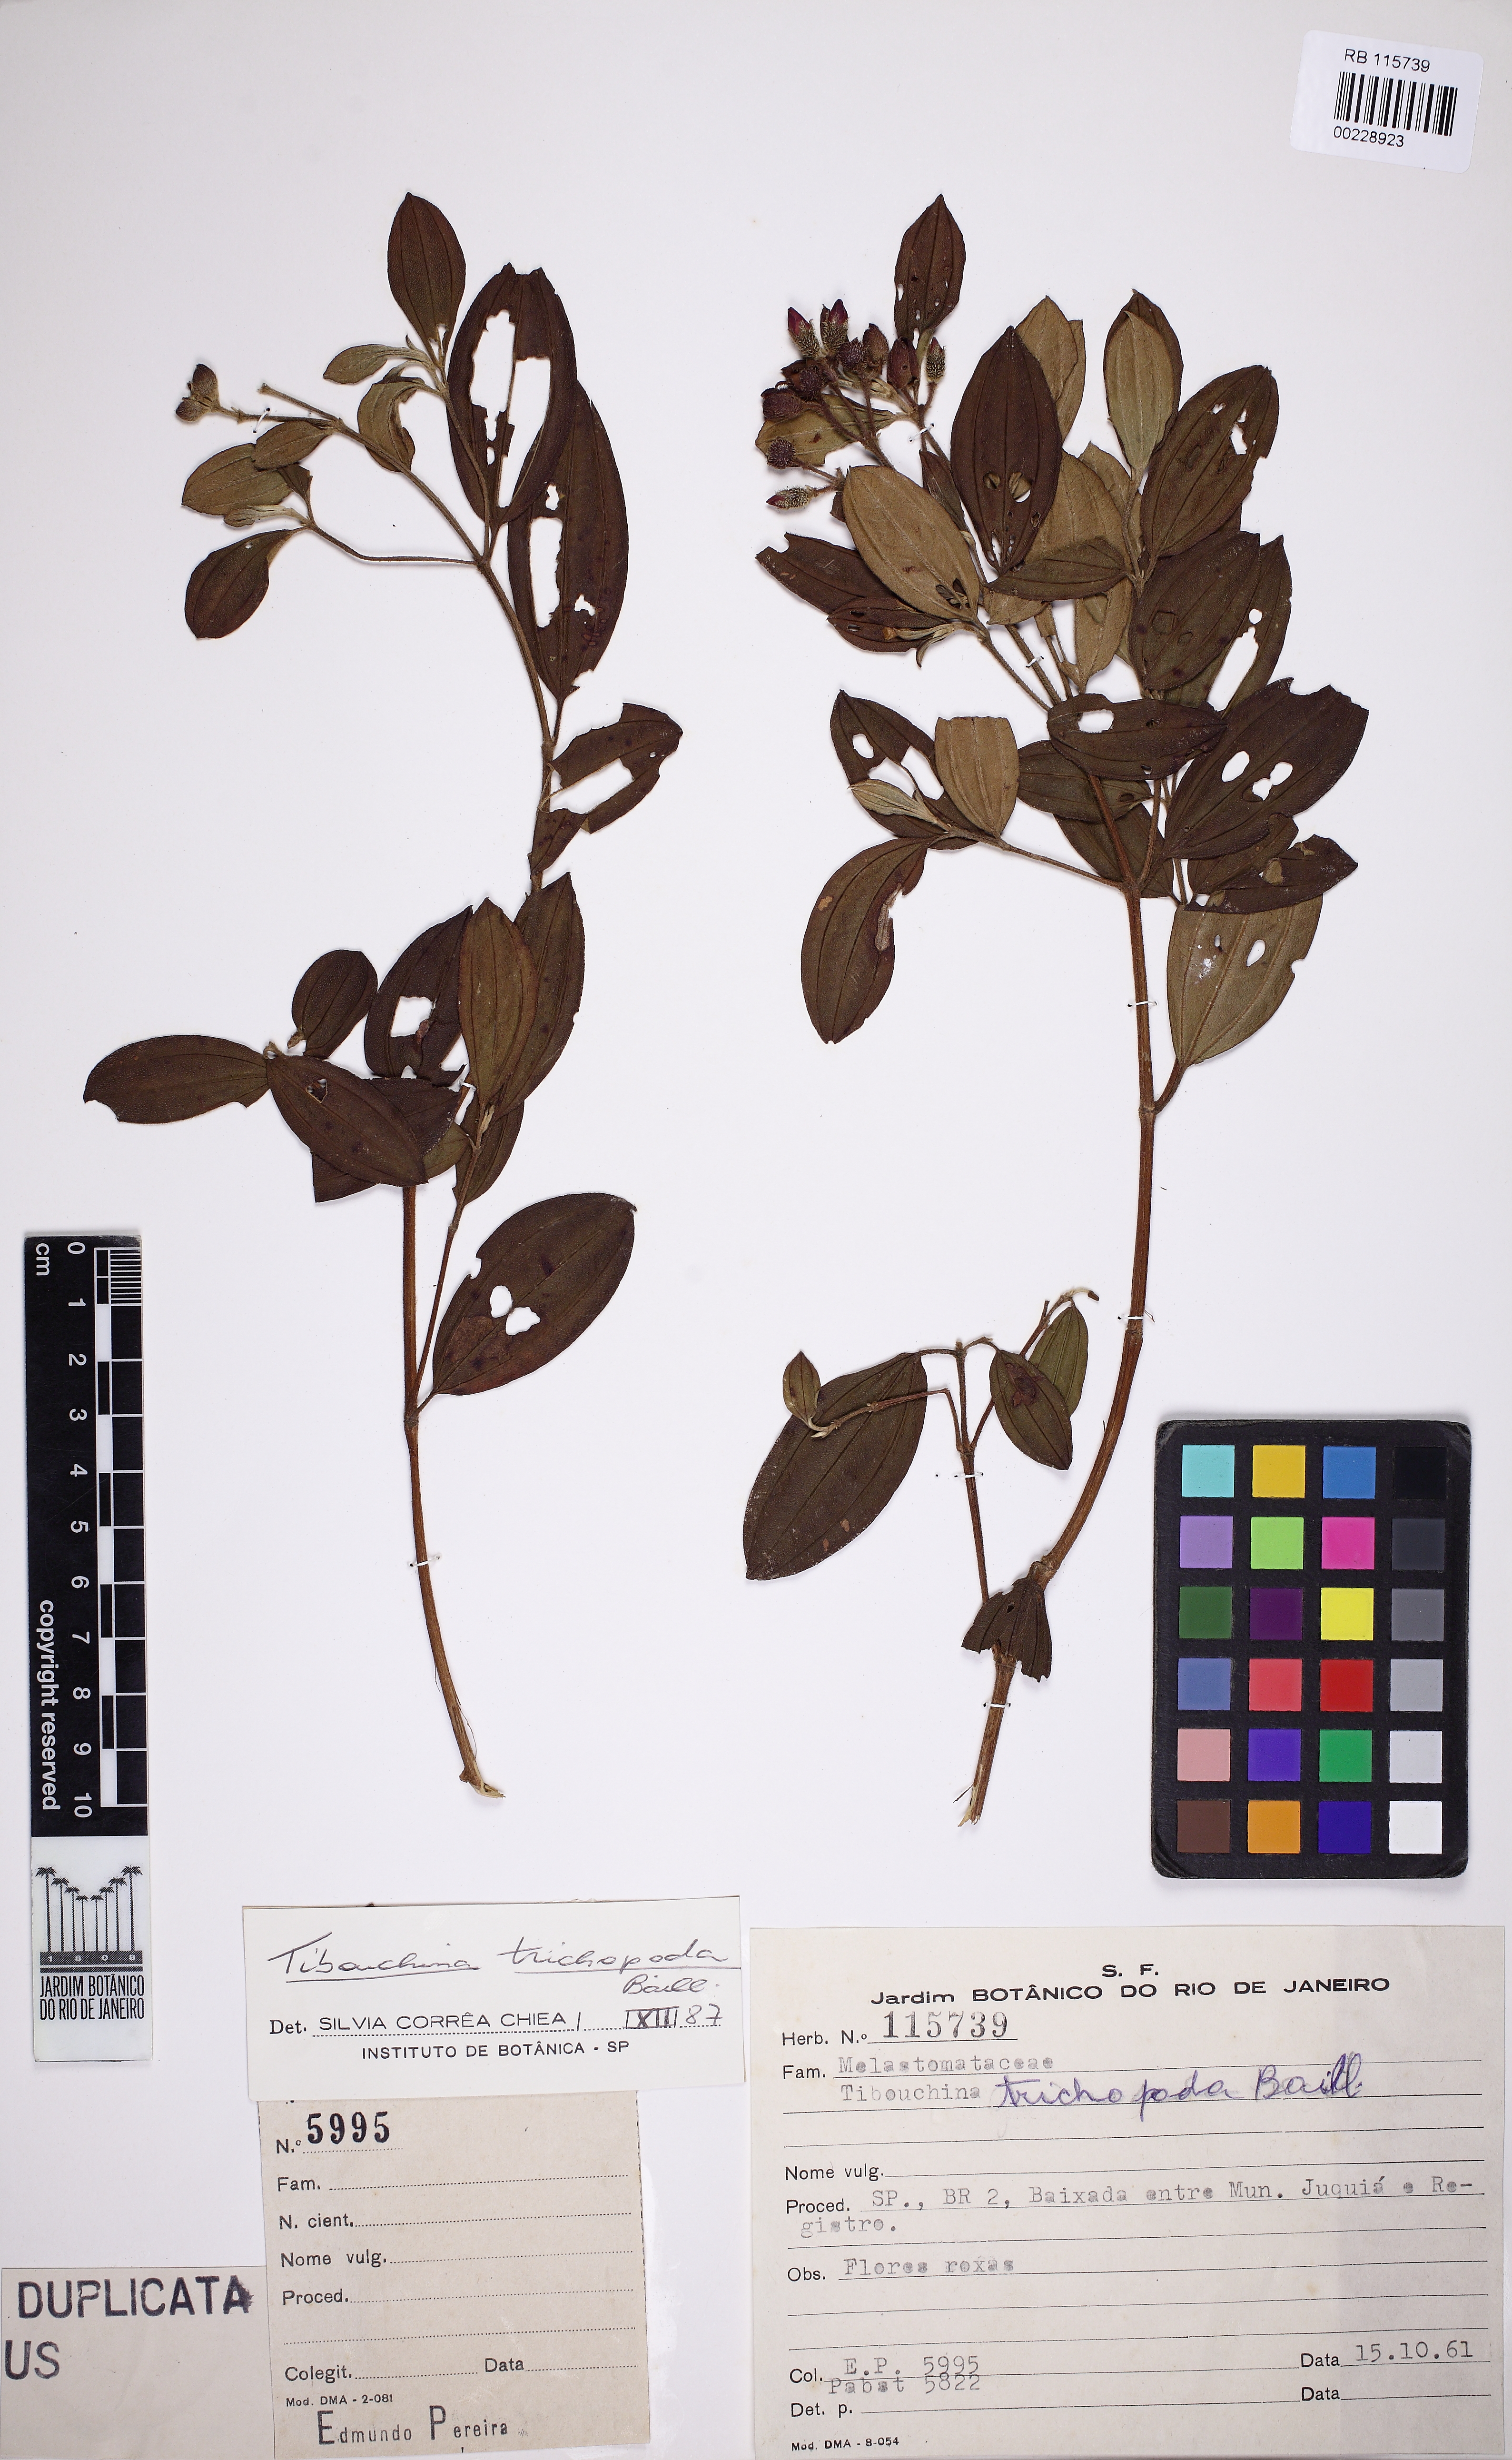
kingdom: Plantae
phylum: Tracheophyta
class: Magnoliopsida
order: Myrtales
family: Melastomataceae
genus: Pleroma
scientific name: Pleroma trichopodum
